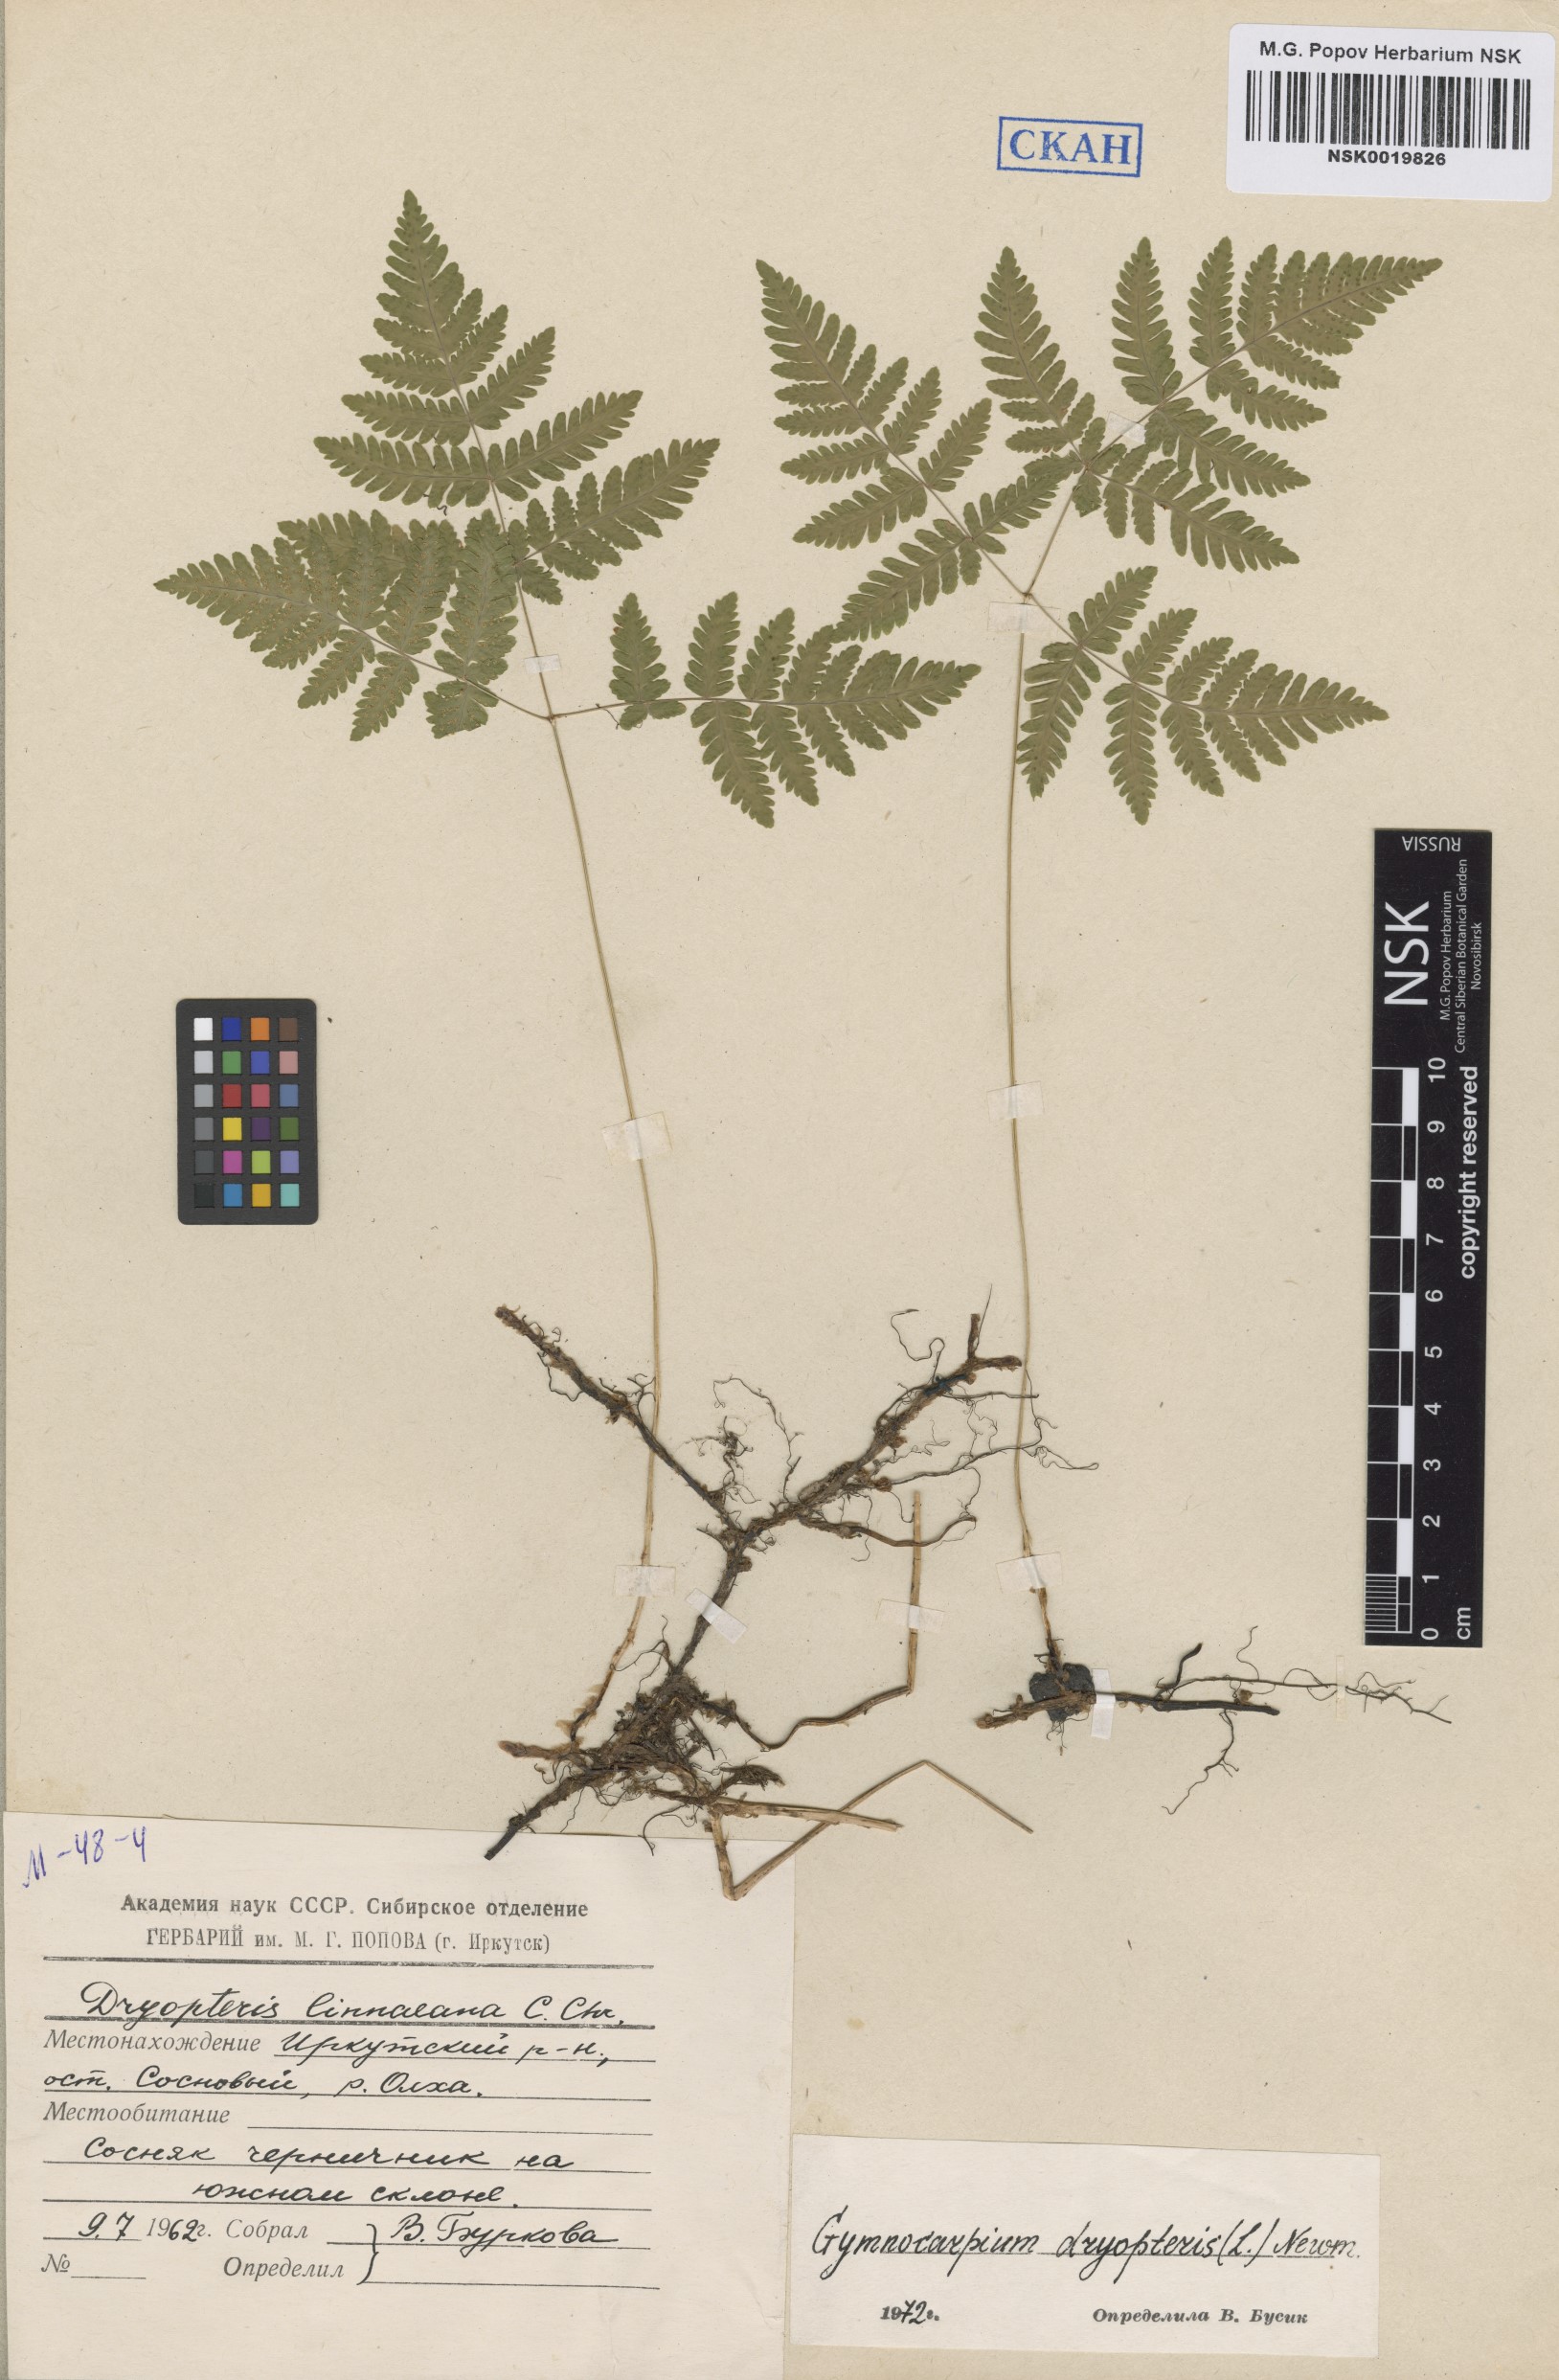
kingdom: Plantae
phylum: Tracheophyta
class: Polypodiopsida
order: Polypodiales
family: Cystopteridaceae
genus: Gymnocarpium
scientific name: Gymnocarpium dryopteris
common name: Oak fern
